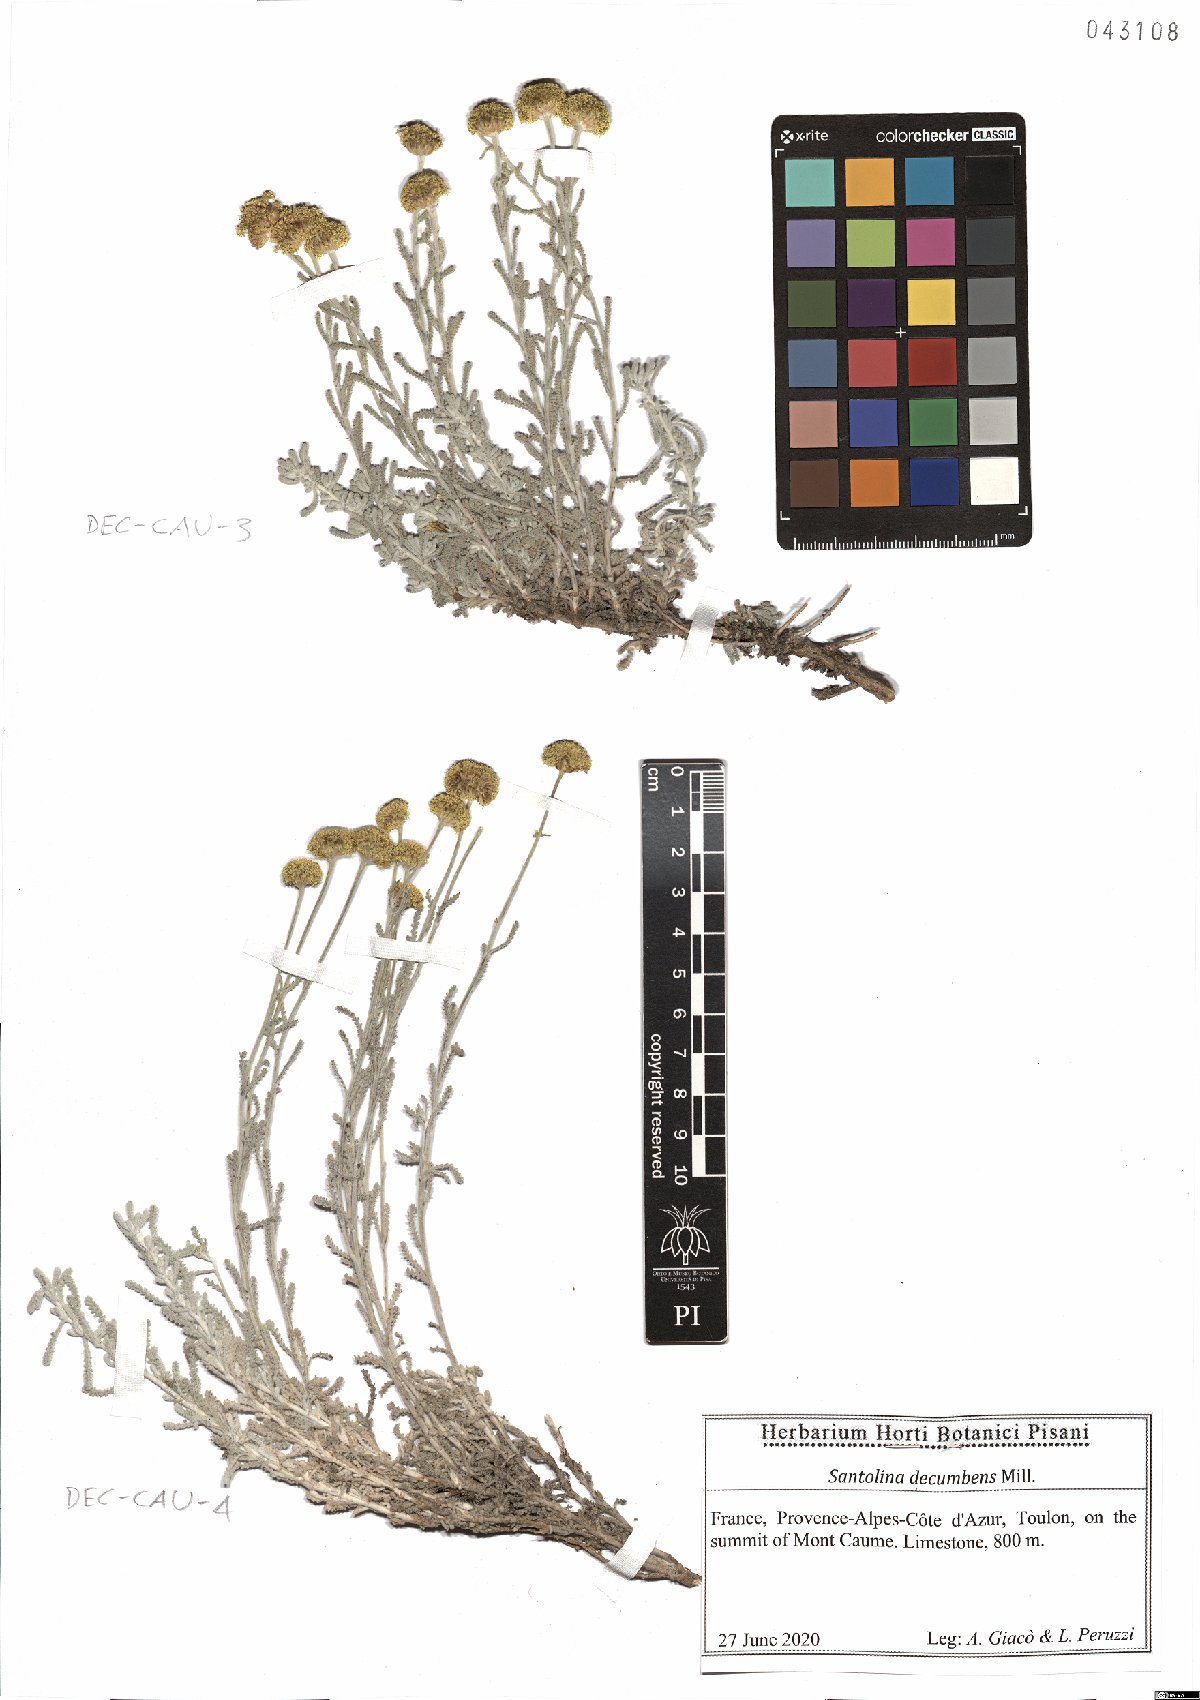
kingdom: Plantae
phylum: Tracheophyta
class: Magnoliopsida
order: Asterales
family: Asteraceae
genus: Santolina
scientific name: Santolina decumbens
